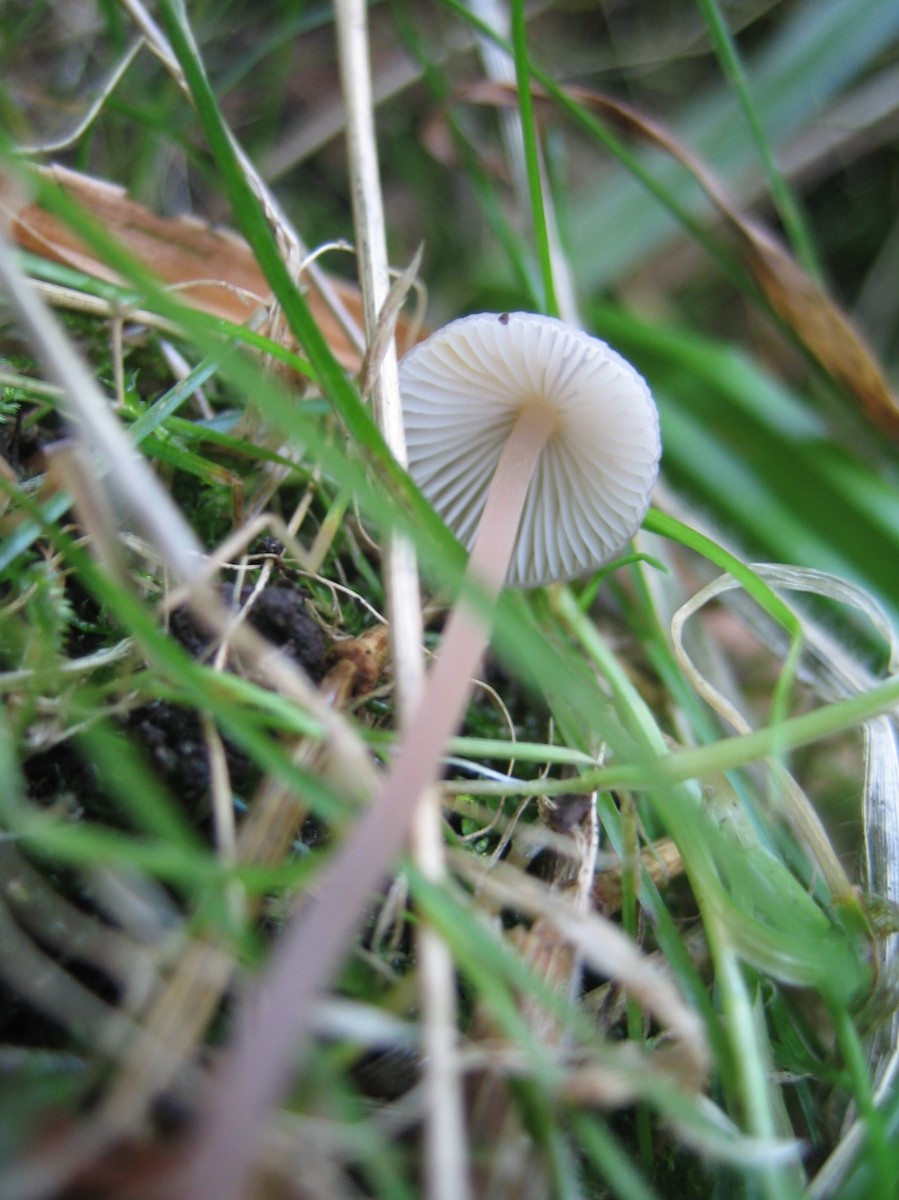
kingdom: Fungi
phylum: Basidiomycota
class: Agaricomycetes
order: Agaricales
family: Mycenaceae
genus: Mycena
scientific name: Mycena crocata
